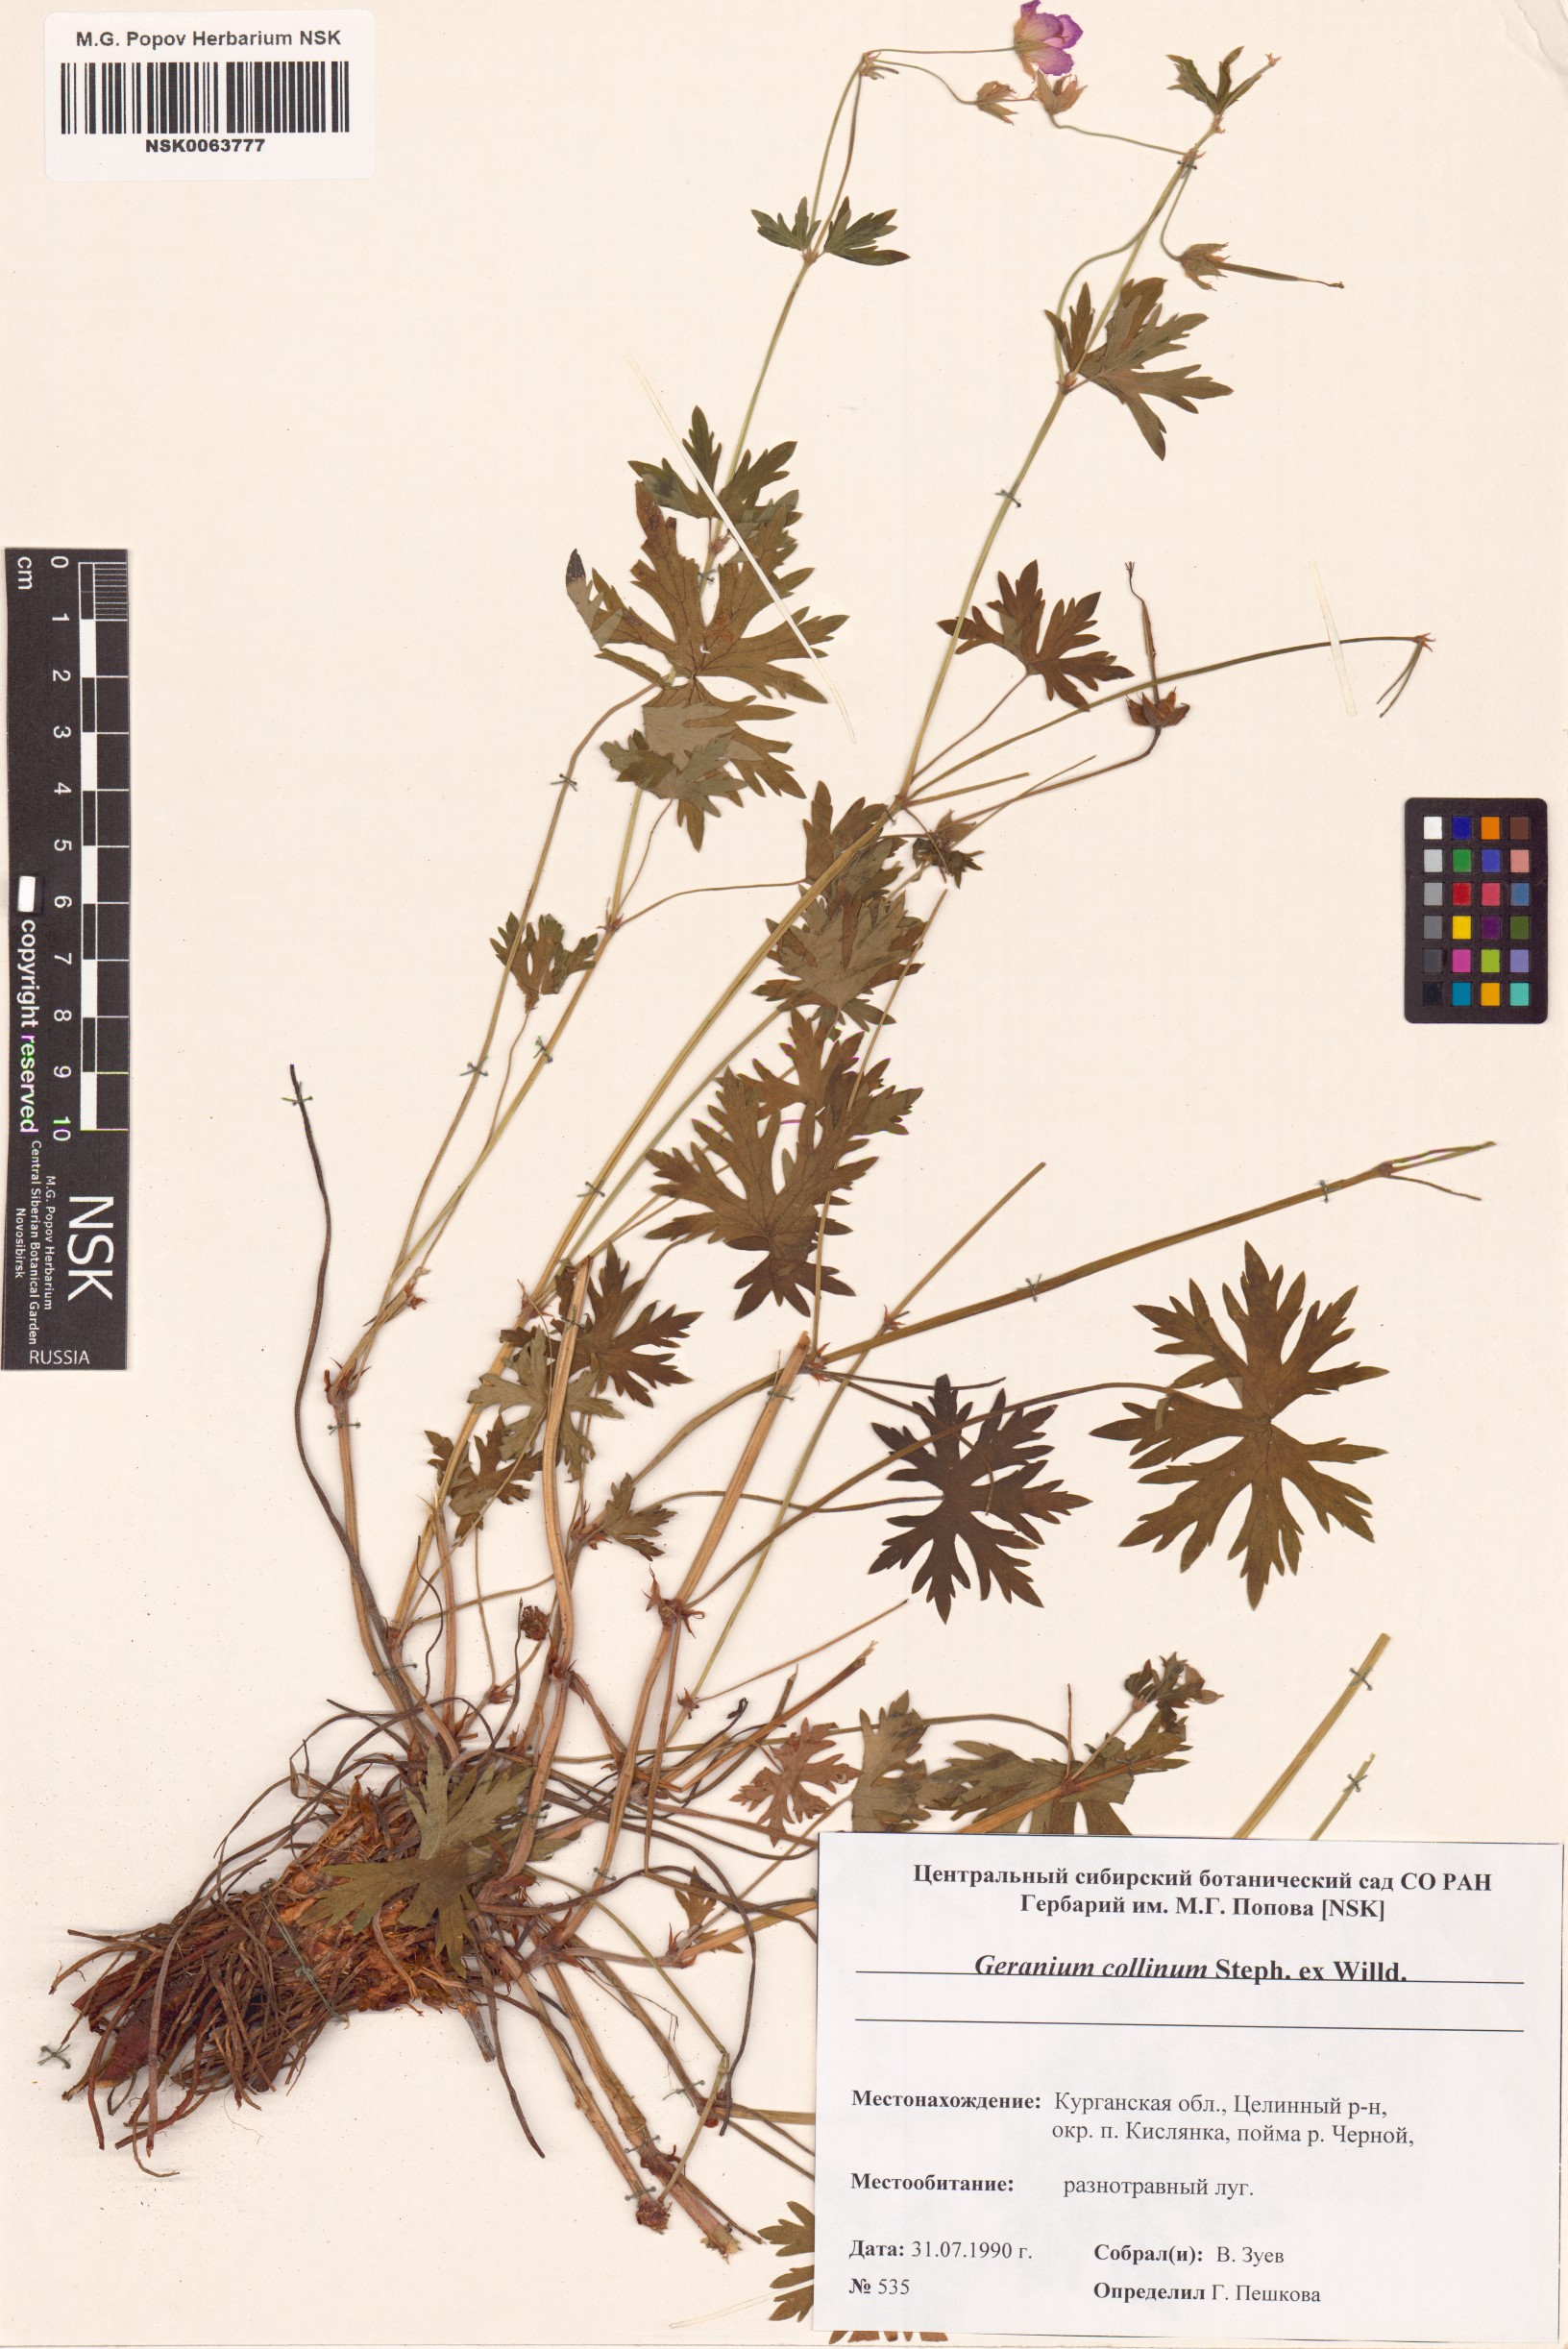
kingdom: Plantae
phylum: Tracheophyta
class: Magnoliopsida
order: Geraniales
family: Geraniaceae
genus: Geranium
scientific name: Geranium collinum
